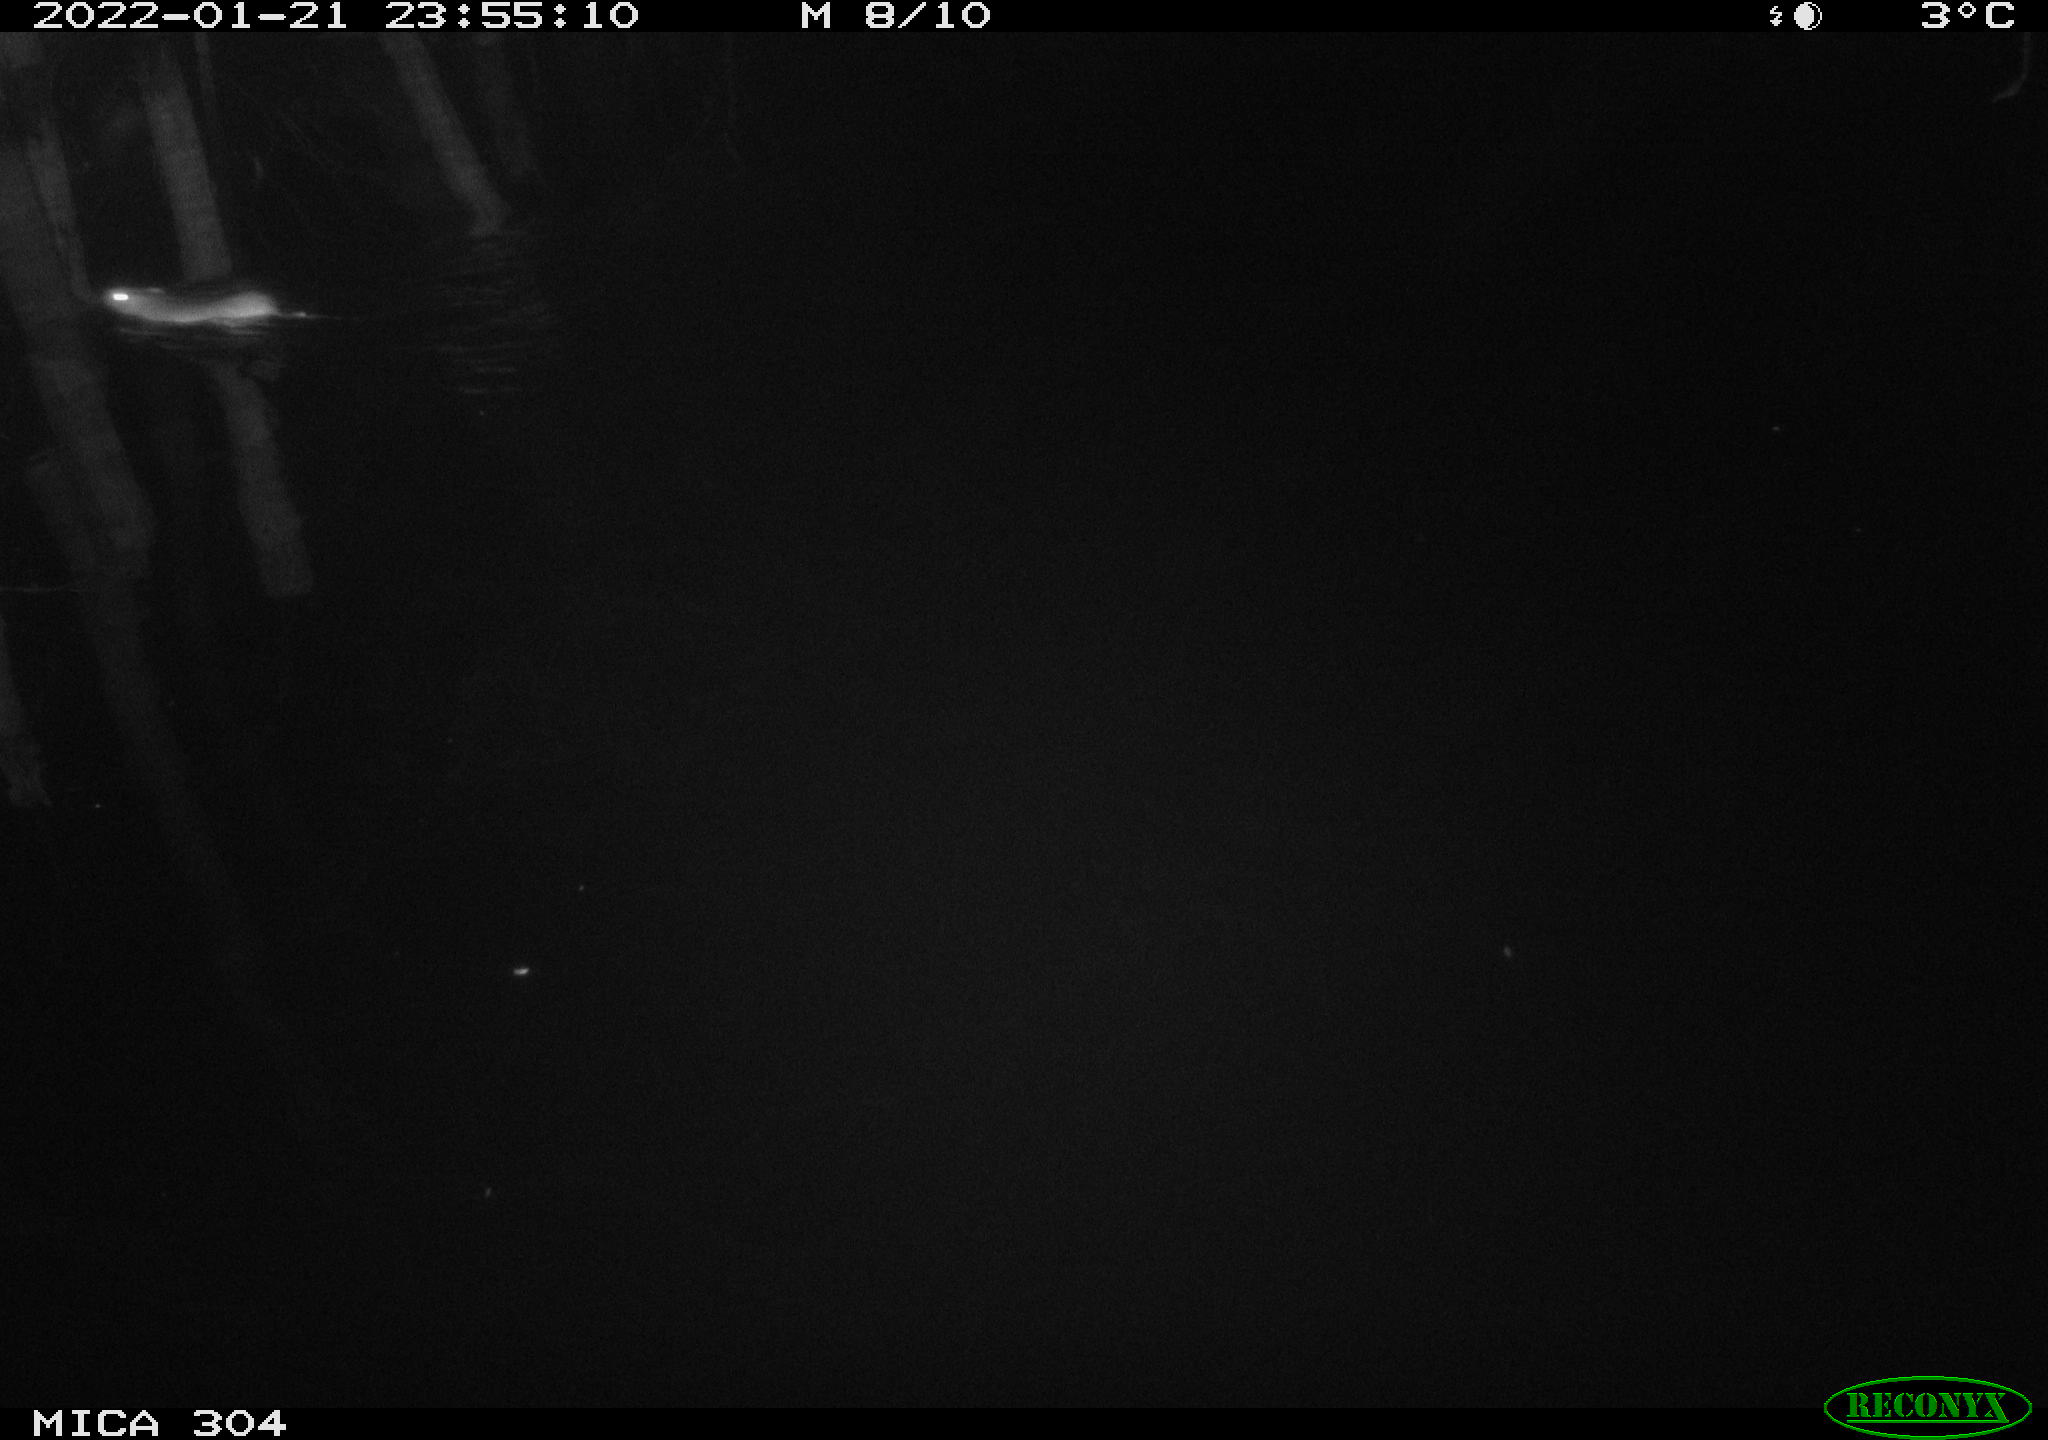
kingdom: Animalia
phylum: Chordata
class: Mammalia
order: Rodentia
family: Muridae
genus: Rattus
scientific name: Rattus norvegicus
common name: Brown rat
